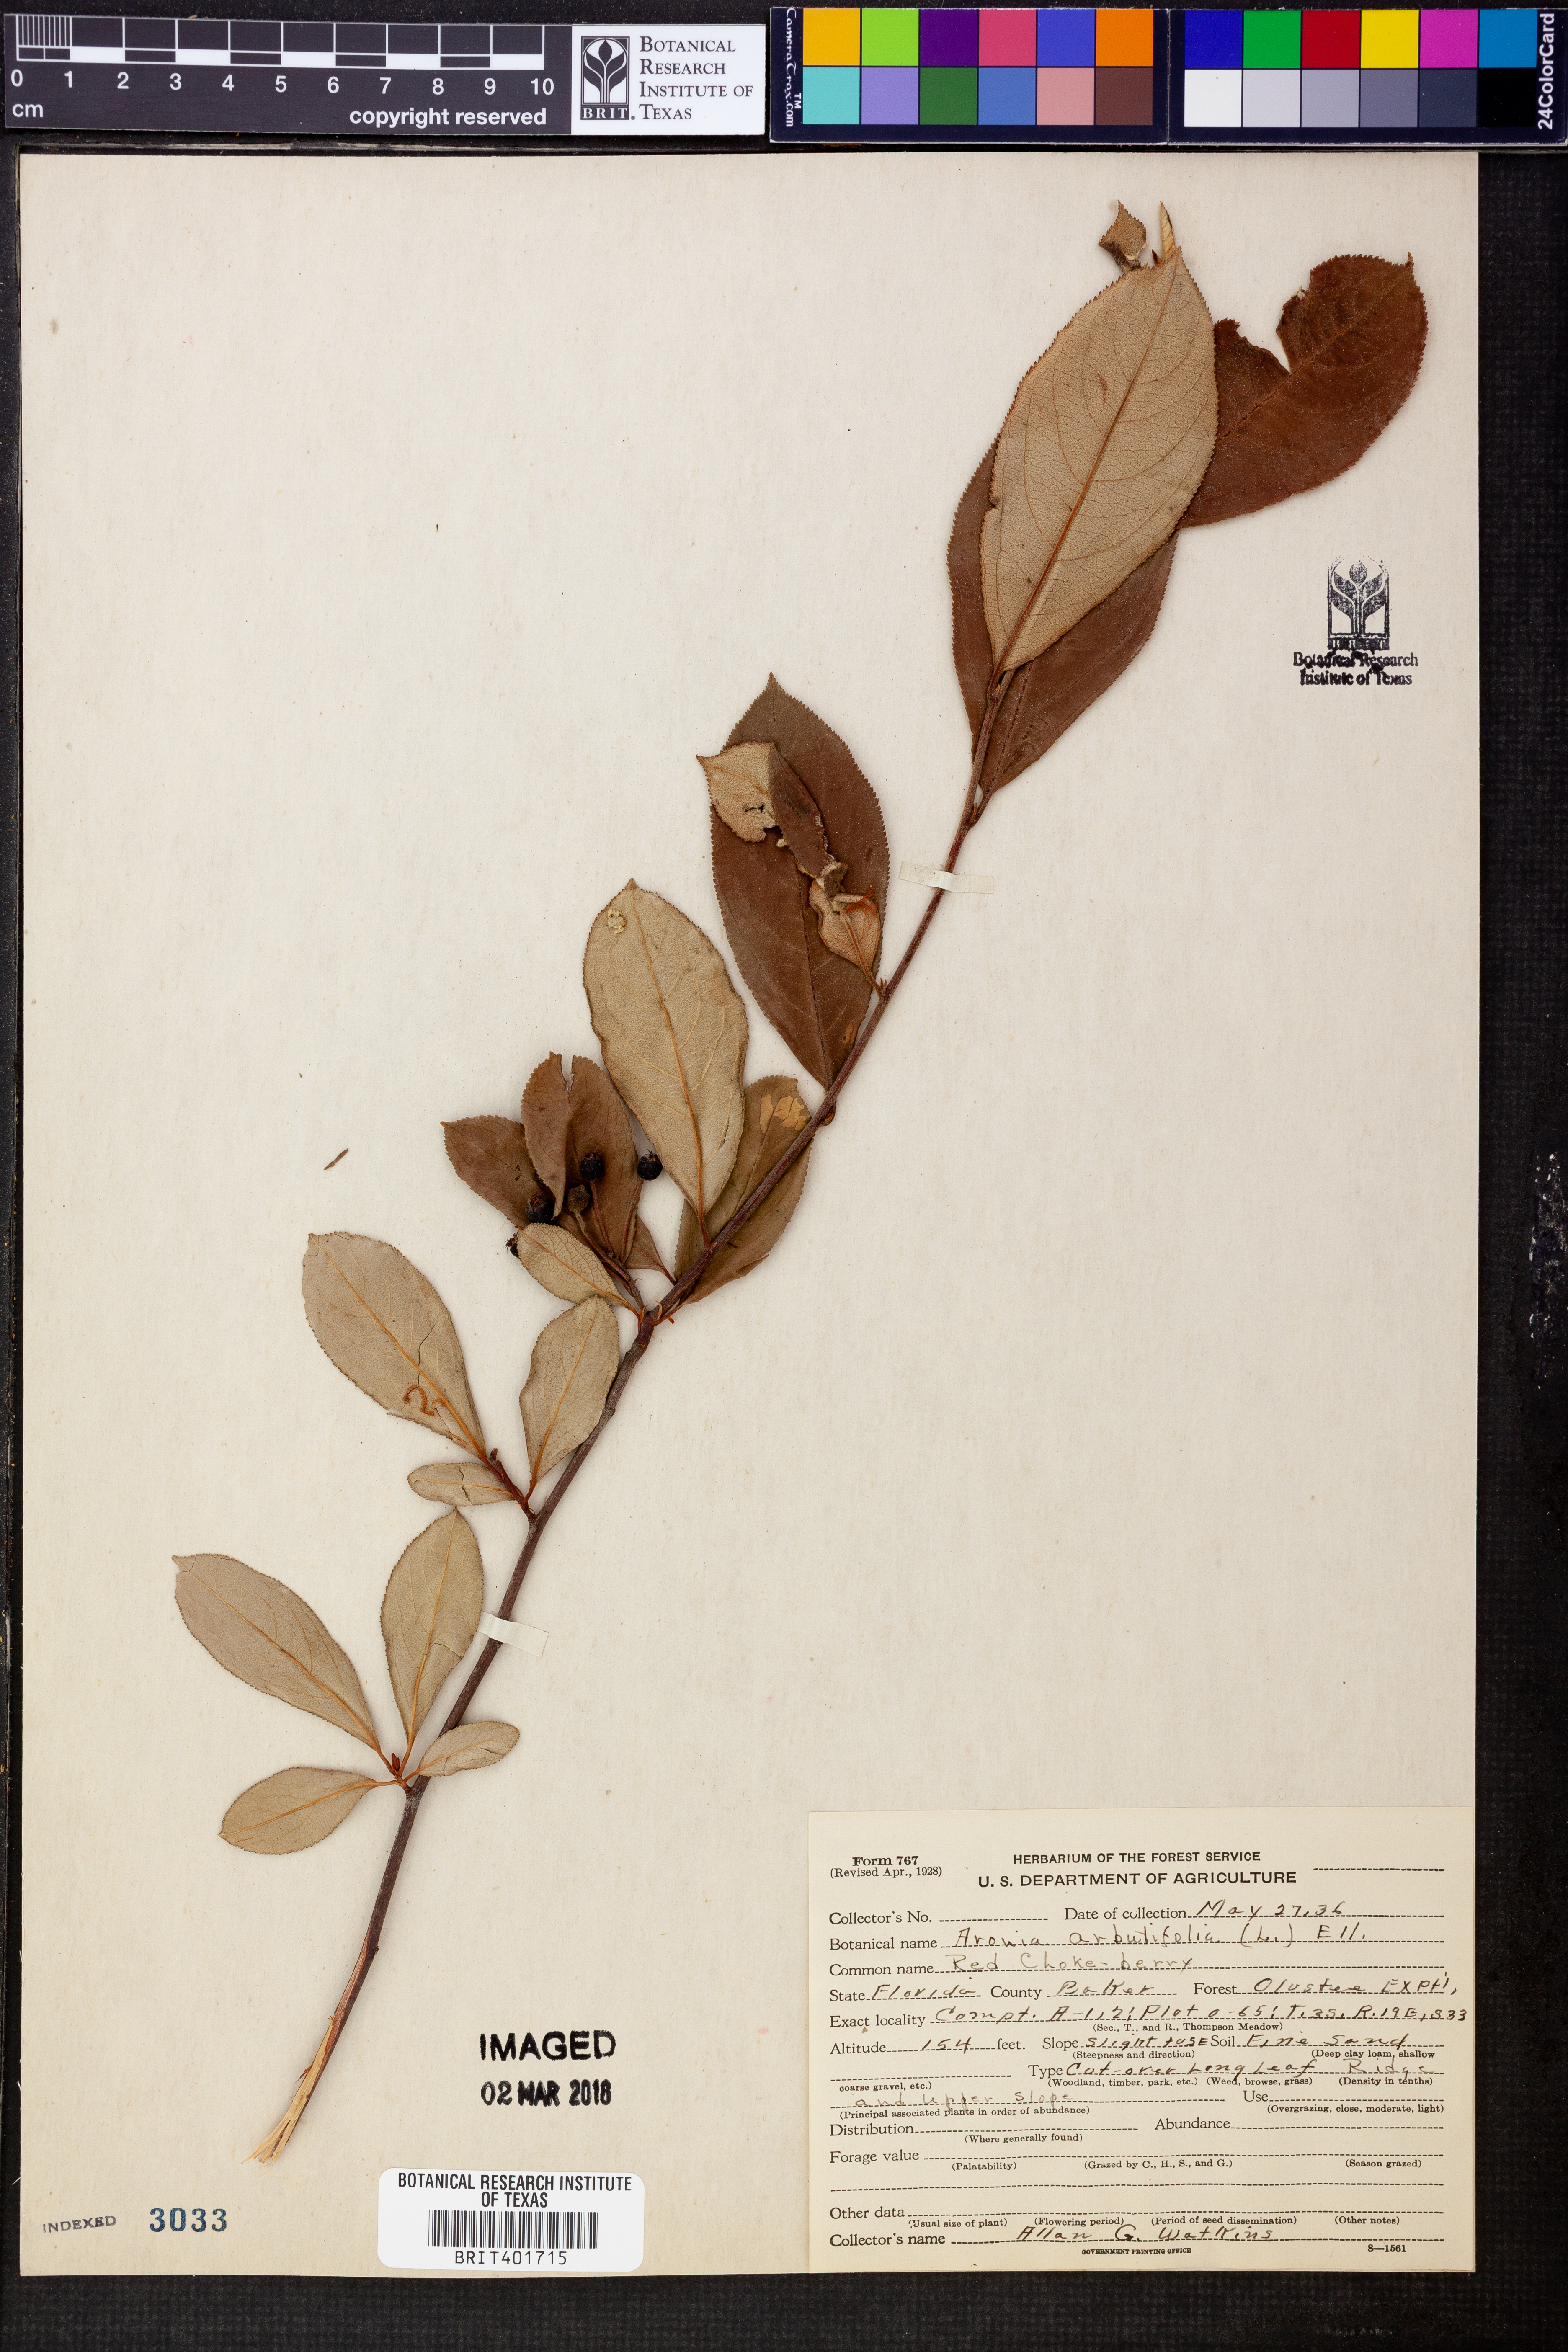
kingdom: Plantae
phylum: Tracheophyta
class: Magnoliopsida
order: Rosales
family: Rosaceae
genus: Aronia
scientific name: Aronia arbutifolia
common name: Red chokeberry
